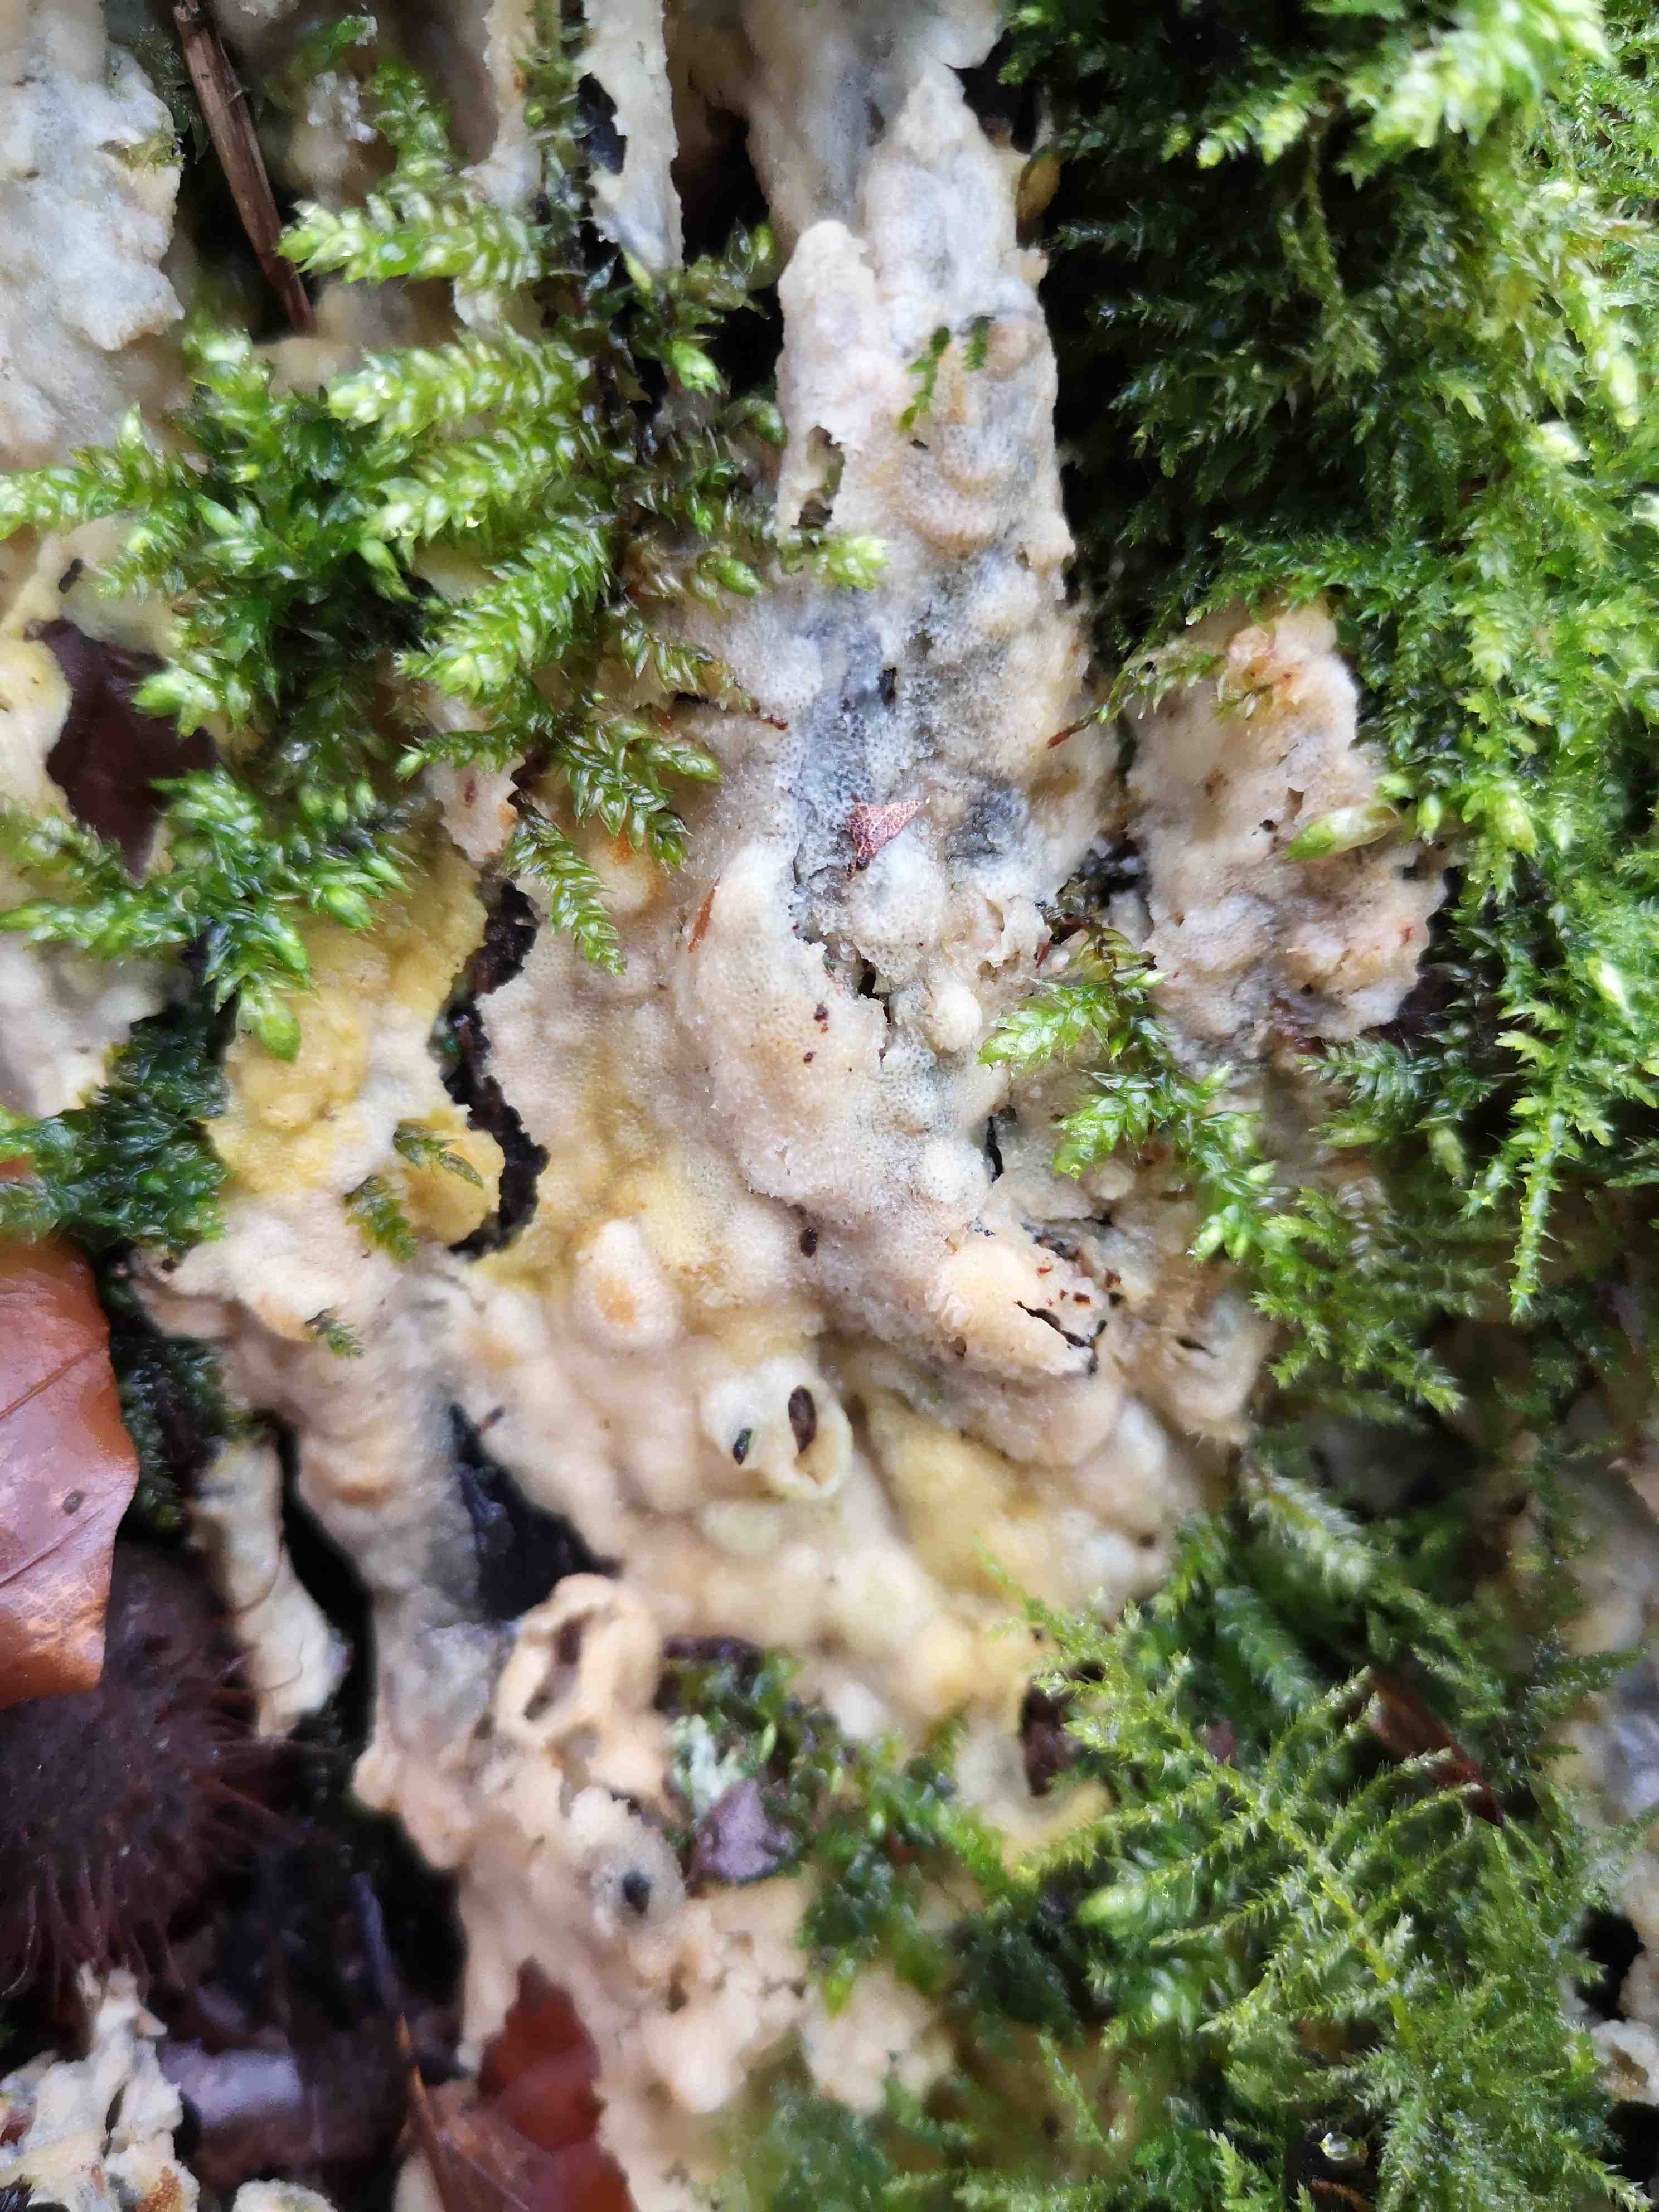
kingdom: Fungi
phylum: Basidiomycota
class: Agaricomycetes
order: Polyporales
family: Meruliaceae
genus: Physisporinus
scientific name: Physisporinus vitreus
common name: mastesvamp
